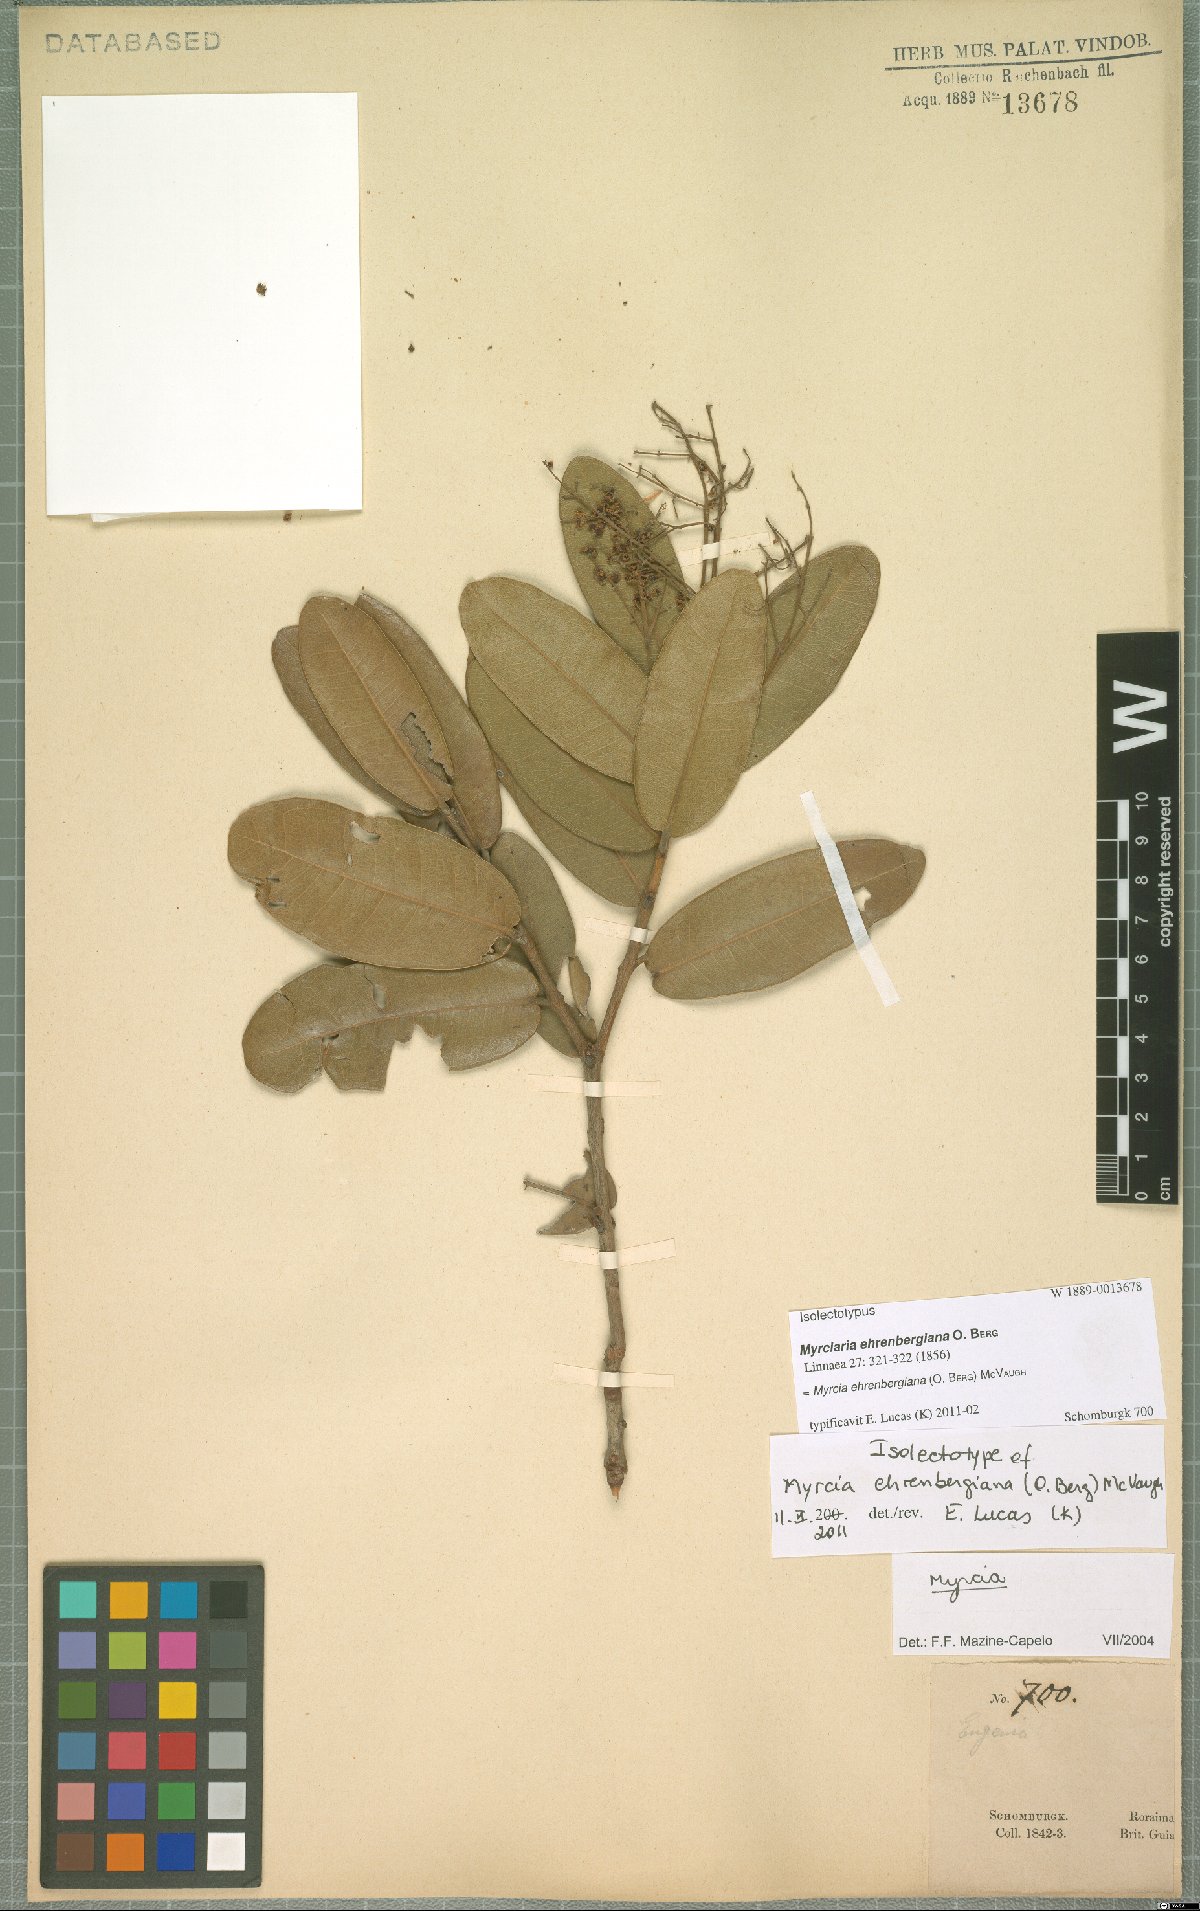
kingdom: Plantae
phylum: Tracheophyta
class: Magnoliopsida
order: Myrtales
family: Myrtaceae
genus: Myrcia
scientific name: Myrcia ehrenbergiana
